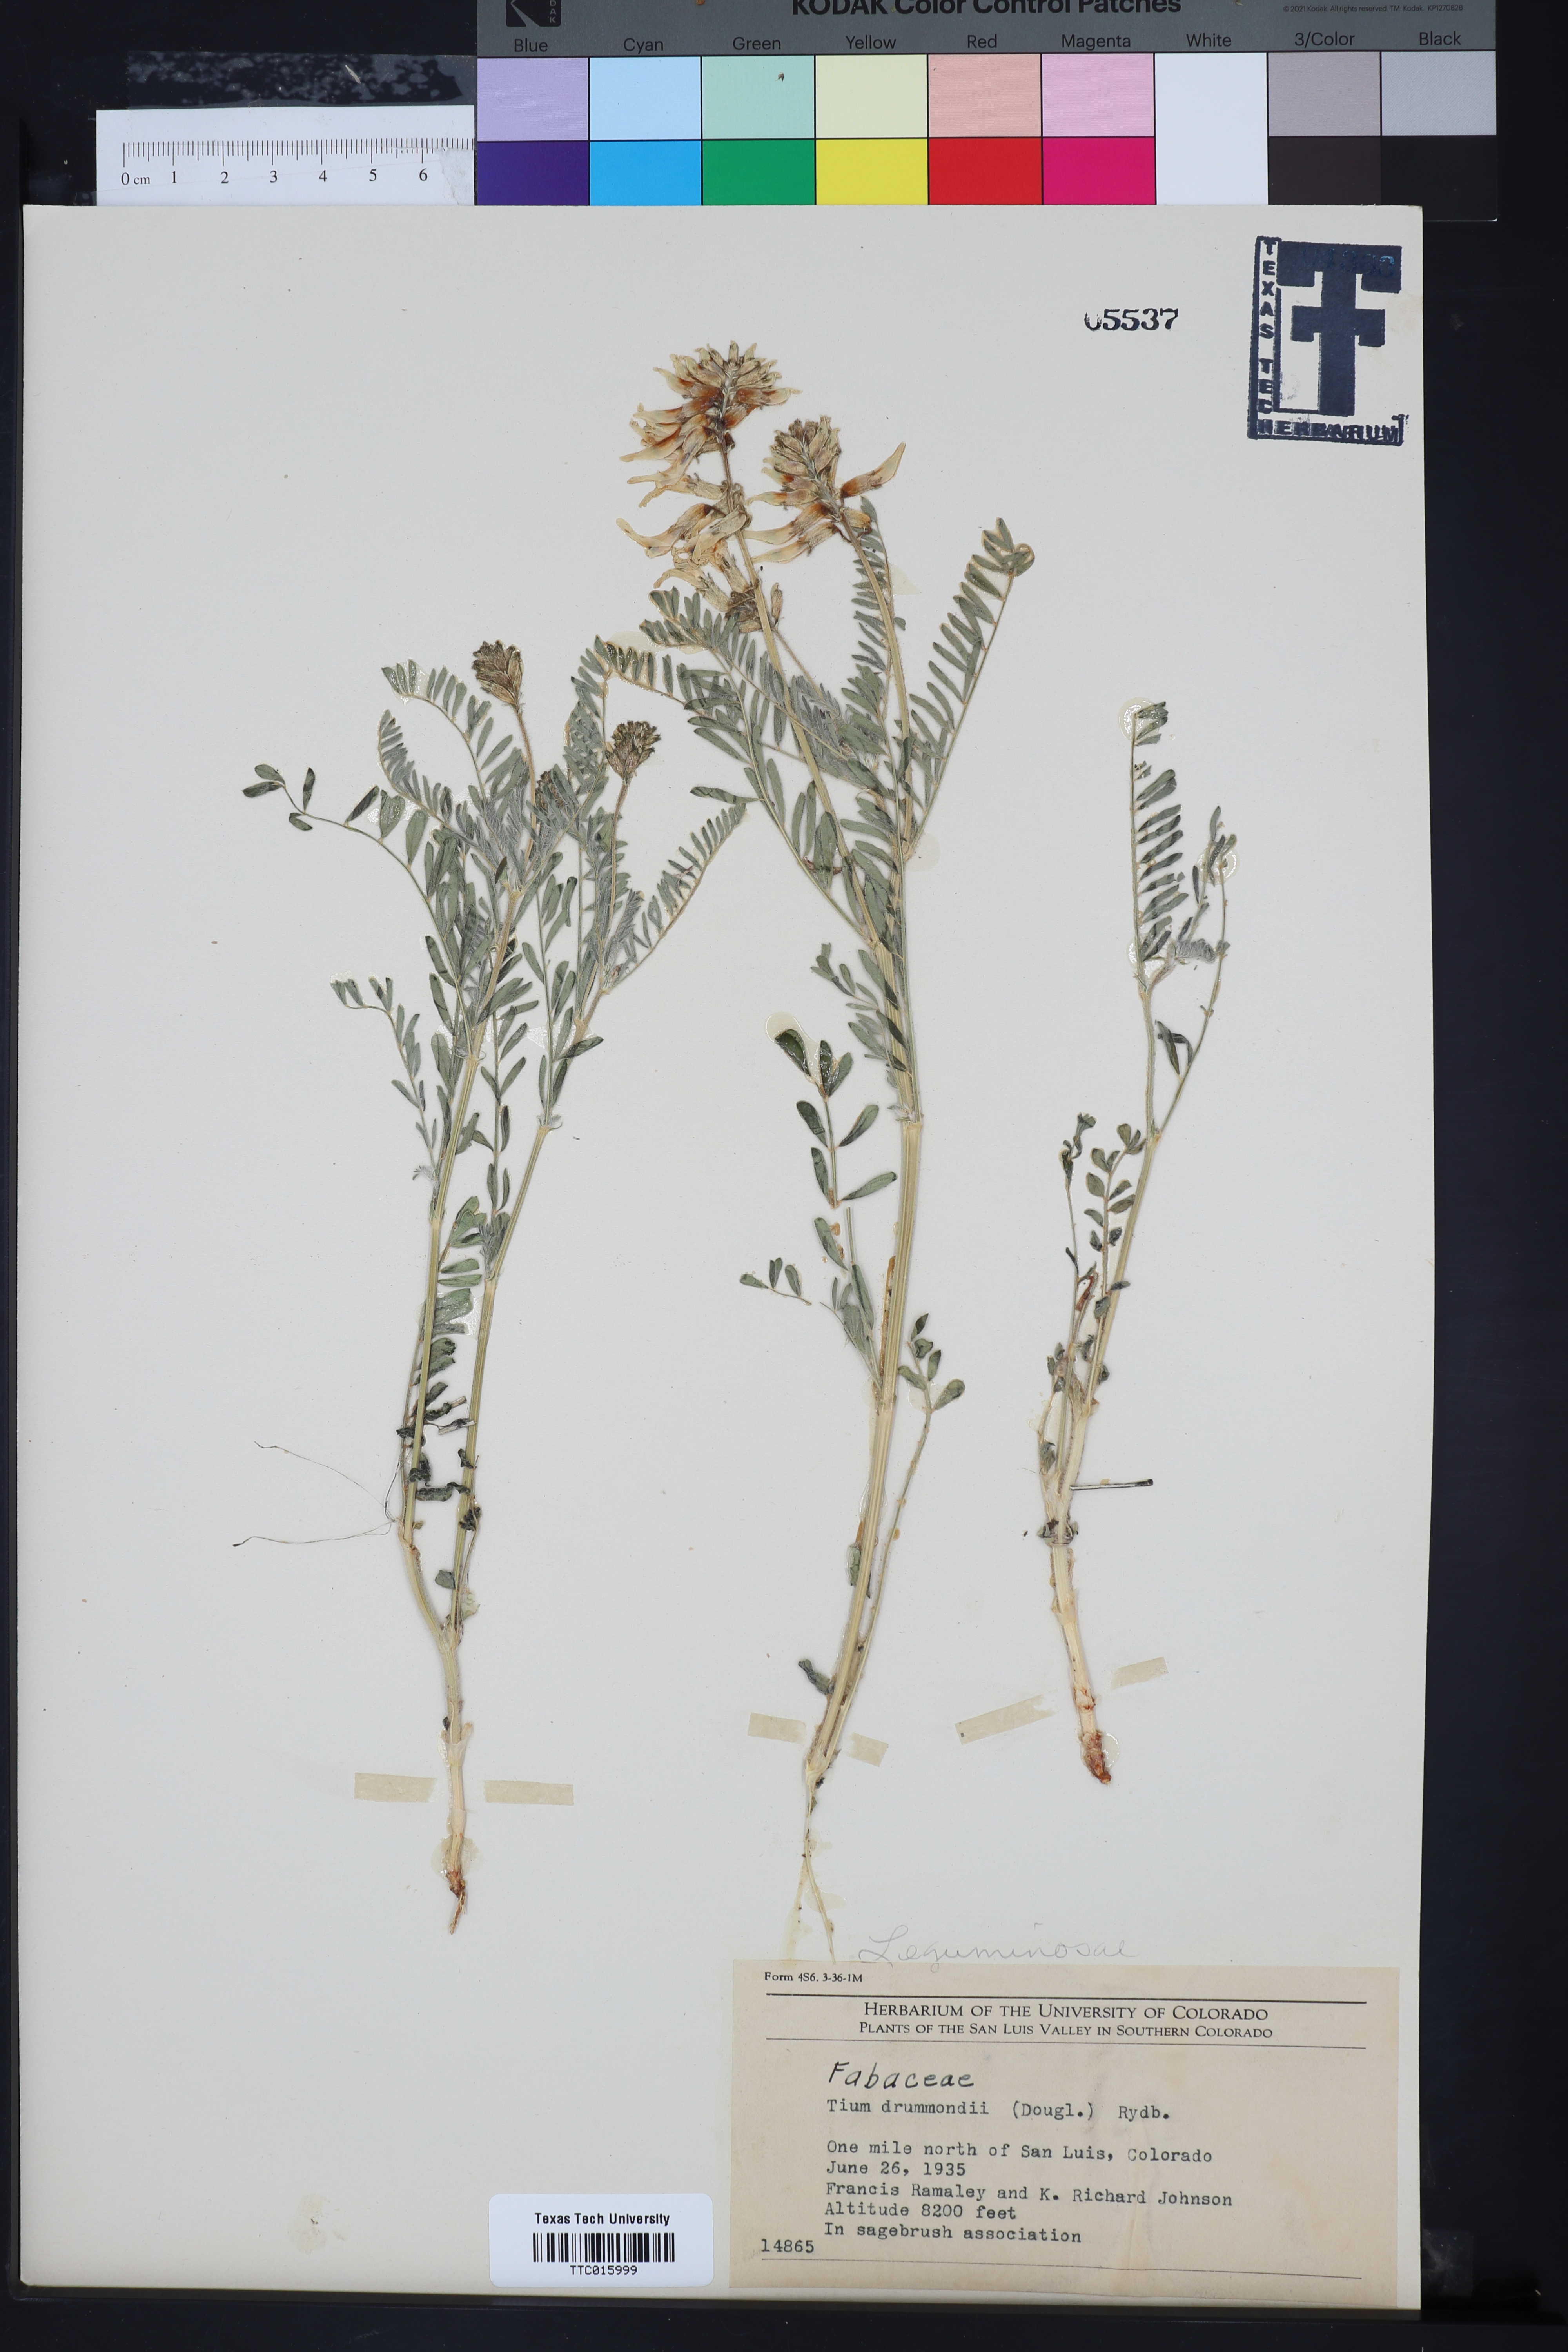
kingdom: Plantae
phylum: Tracheophyta
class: Magnoliopsida
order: Fabales
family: Fabaceae
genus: Astragalus
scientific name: Astragalus drummondii
